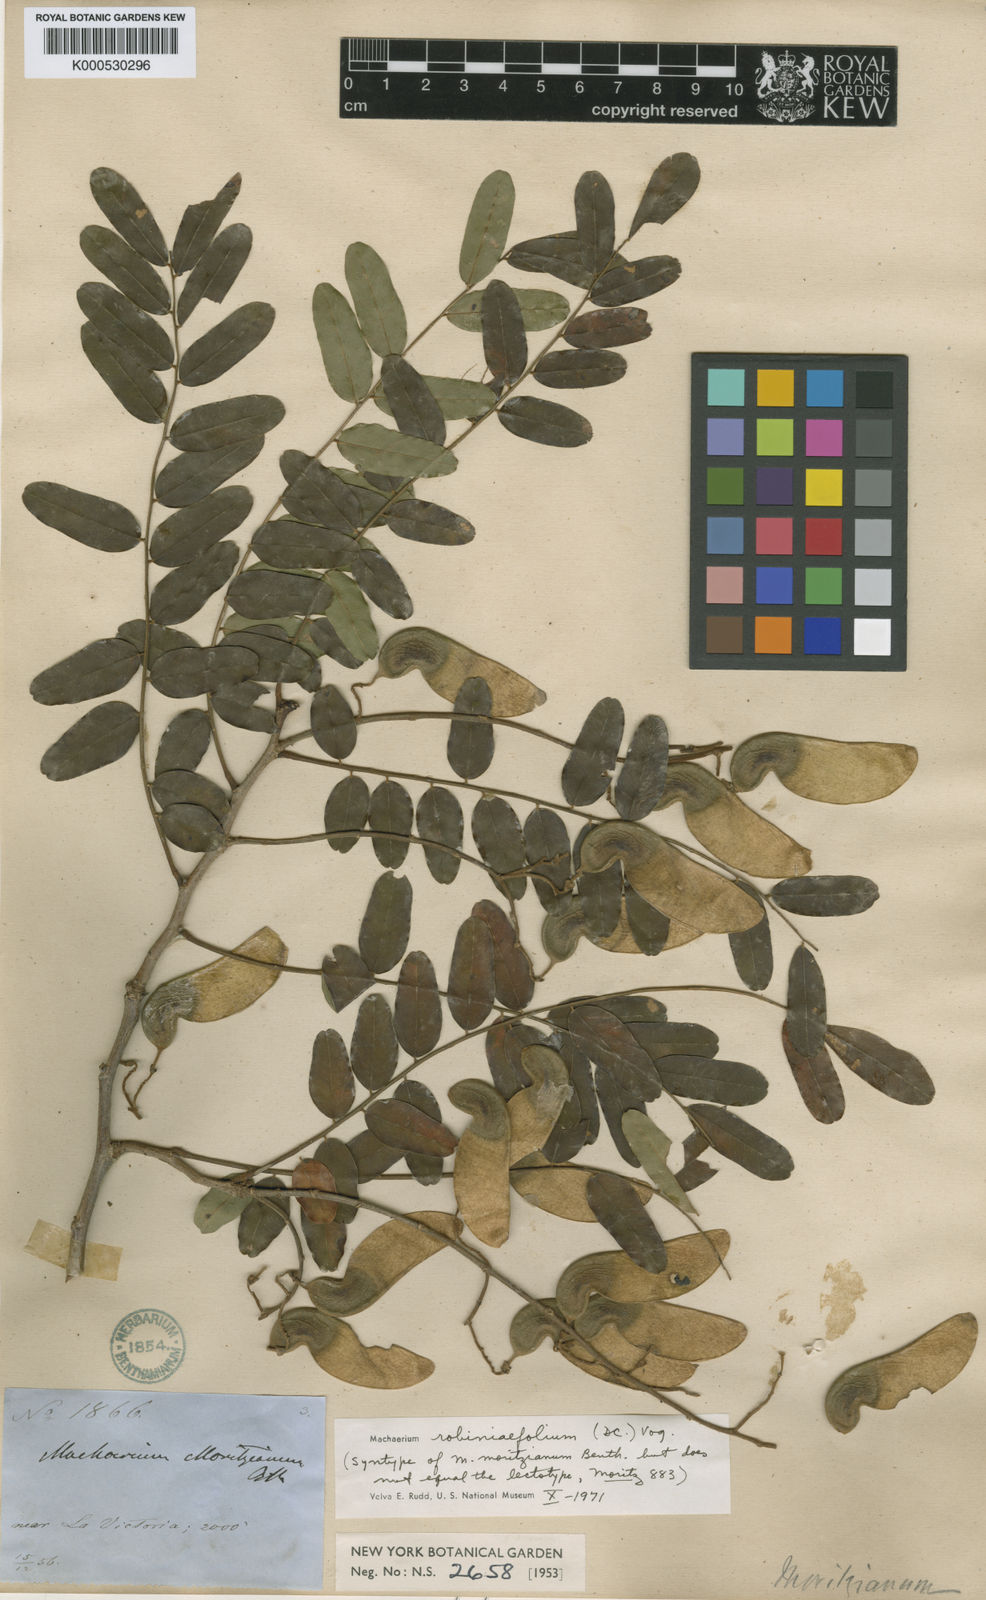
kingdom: Plantae
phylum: Tracheophyta
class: Magnoliopsida
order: Fabales
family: Fabaceae
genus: Machaerium
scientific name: Machaerium robiniifolium
